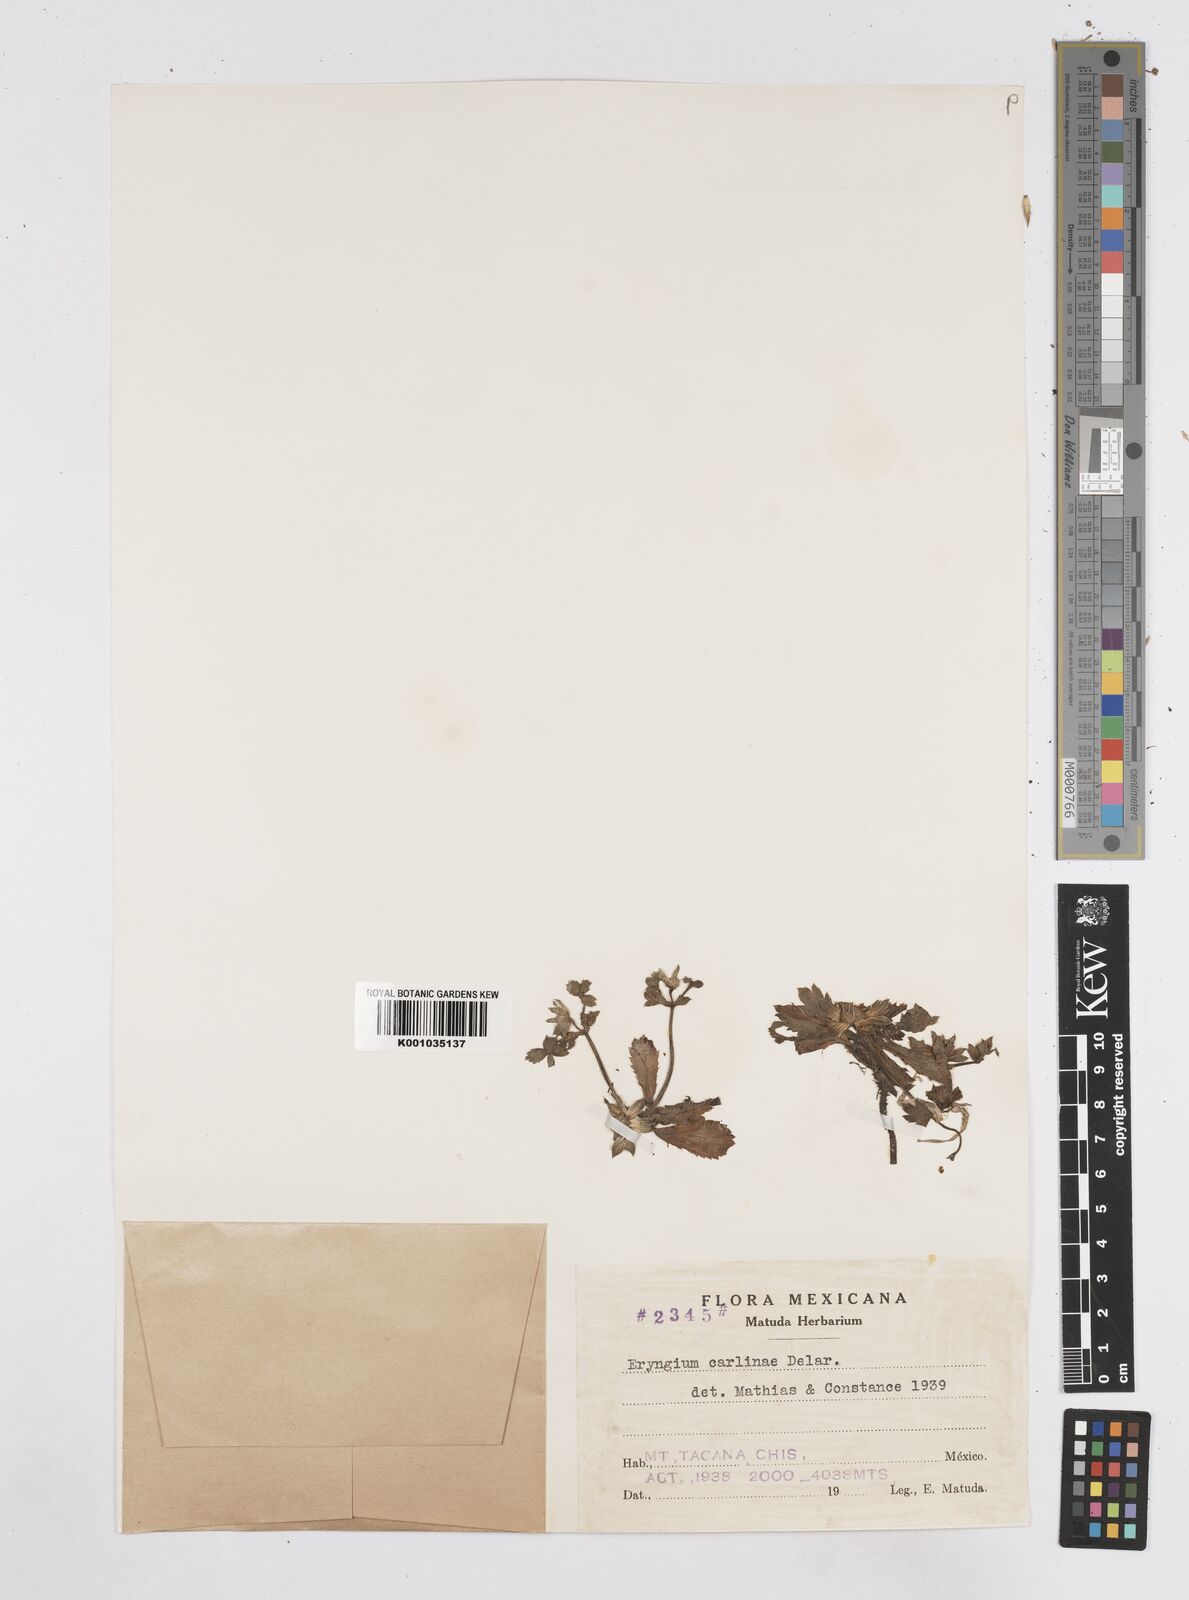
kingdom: Plantae
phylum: Tracheophyta
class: Magnoliopsida
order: Apiales
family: Apiaceae
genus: Eryngium
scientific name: Eryngium carlinae
